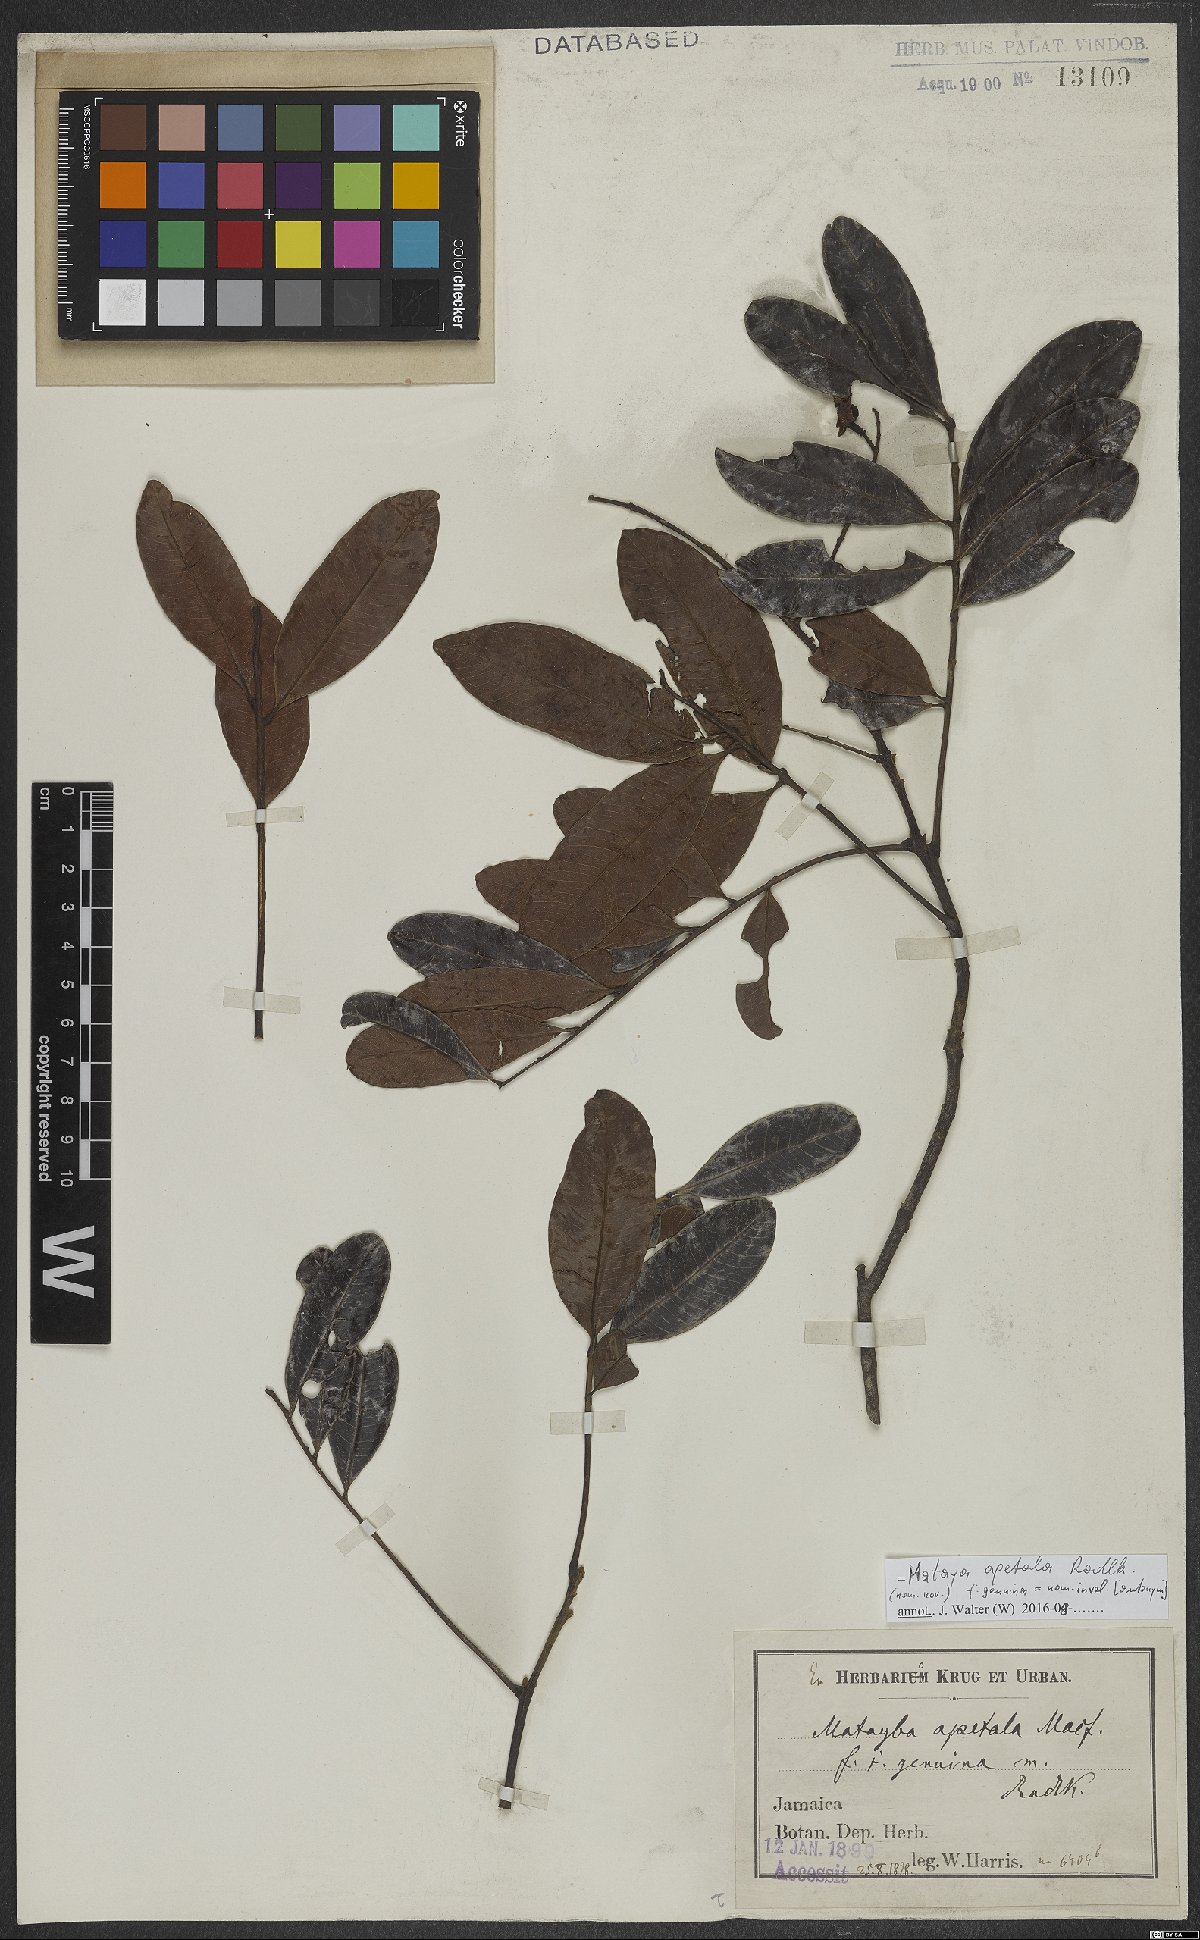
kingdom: Plantae
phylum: Tracheophyta
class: Magnoliopsida
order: Sapindales
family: Sapindaceae
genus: Matayba
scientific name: Matayba apetala
